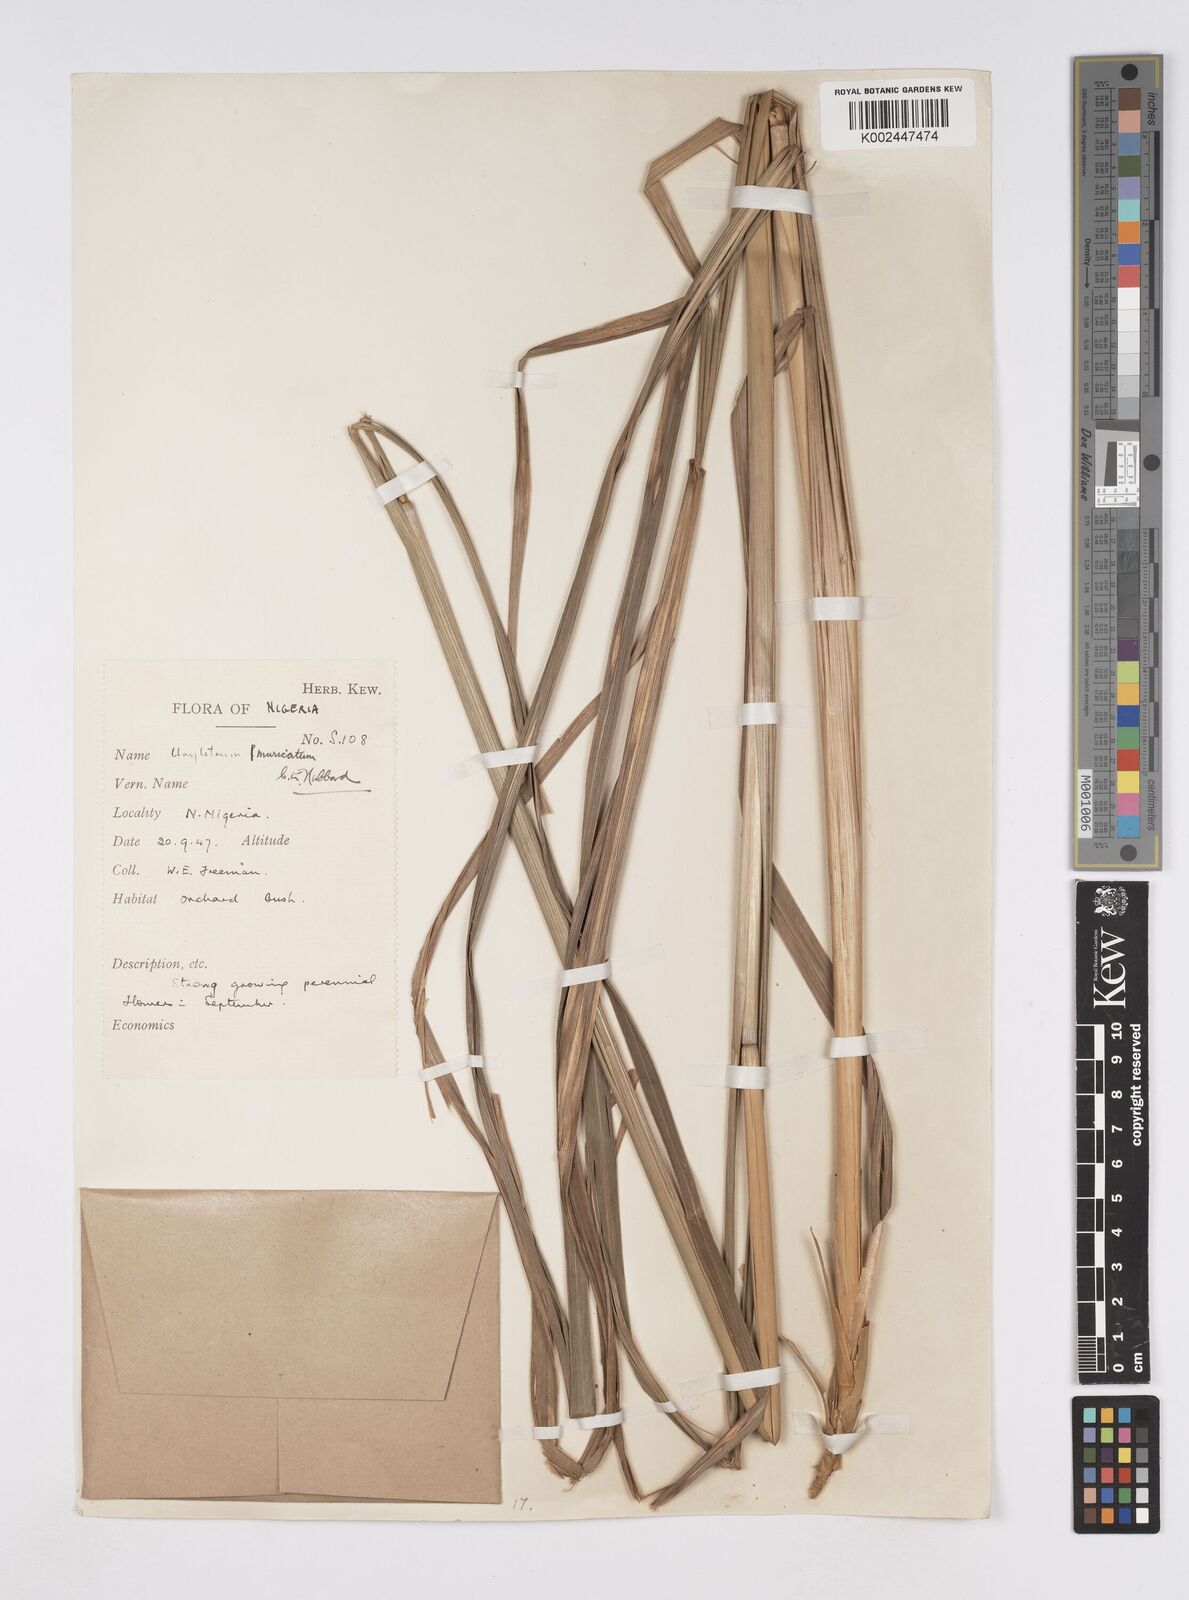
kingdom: Plantae
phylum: Tracheophyta
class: Liliopsida
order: Poales
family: Poaceae
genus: Urelytrum
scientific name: Urelytrum muricatum
